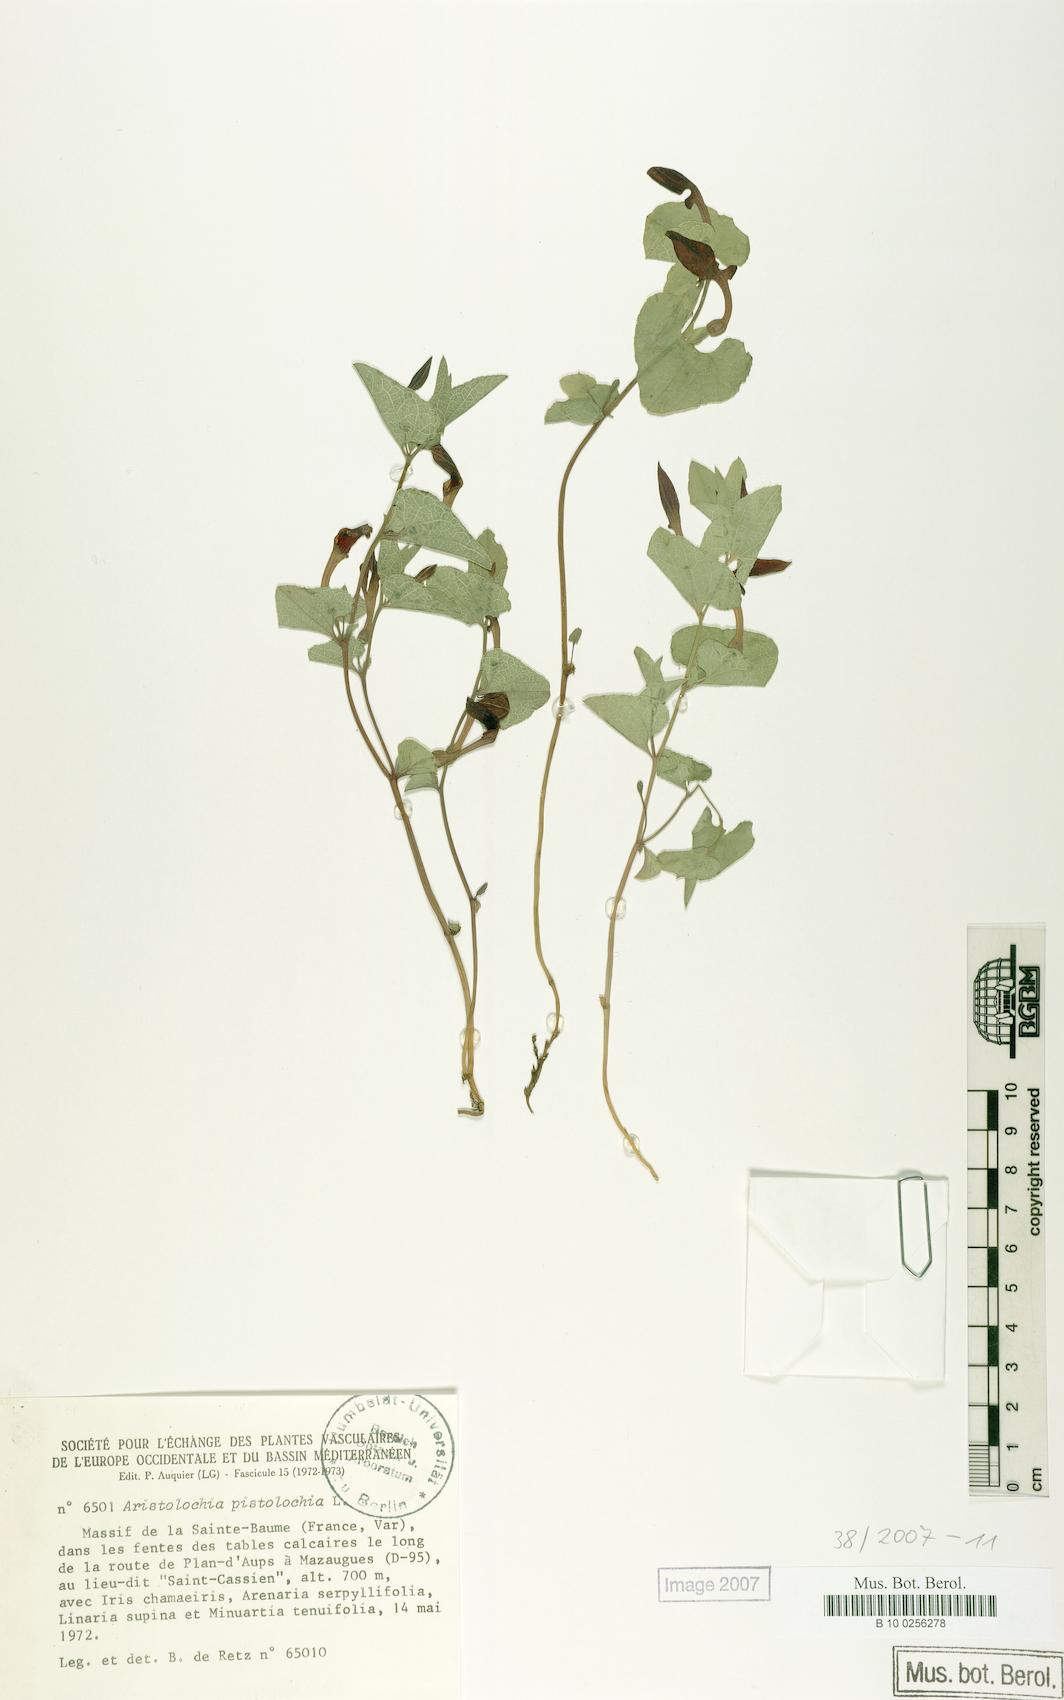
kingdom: Plantae
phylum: Tracheophyta
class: Magnoliopsida
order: Piperales
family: Aristolochiaceae
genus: Aristolochia
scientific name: Aristolochia pistolochia
